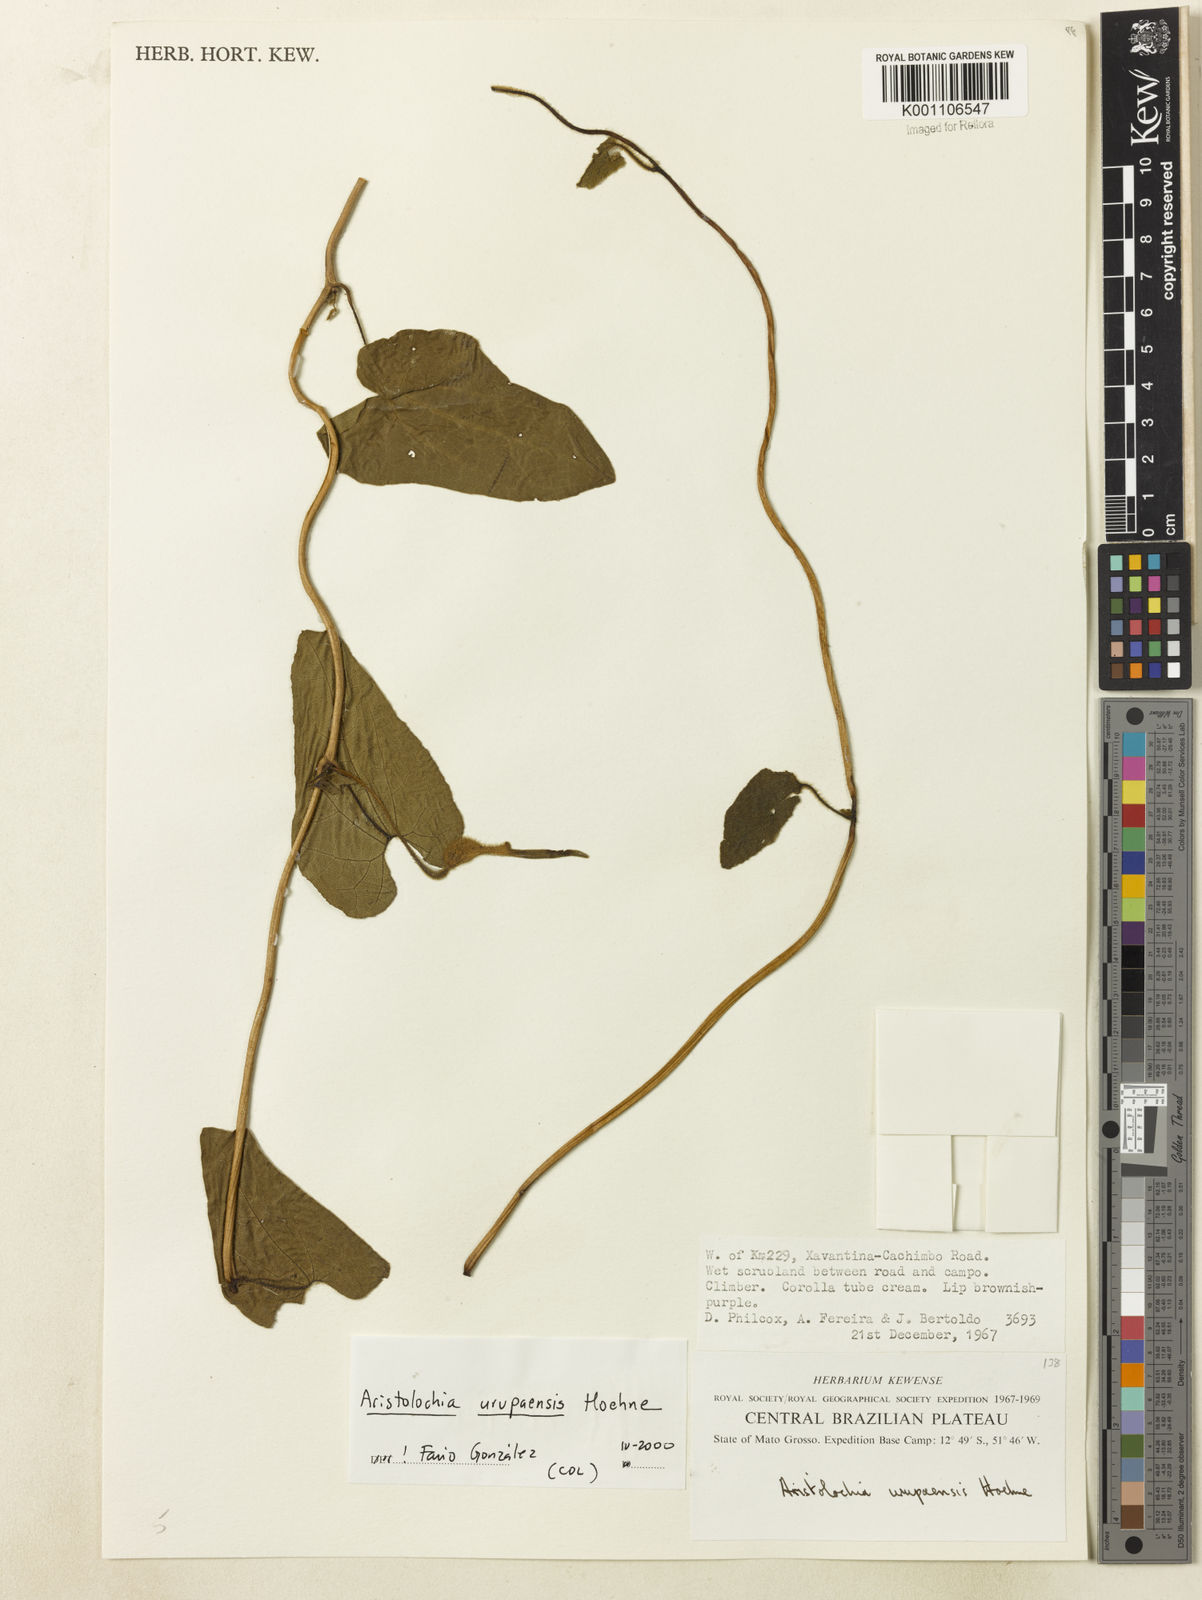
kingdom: Plantae
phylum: Tracheophyta
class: Magnoliopsida
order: Piperales
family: Aristolochiaceae
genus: Aristolochia
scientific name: Aristolochia urupaensis
